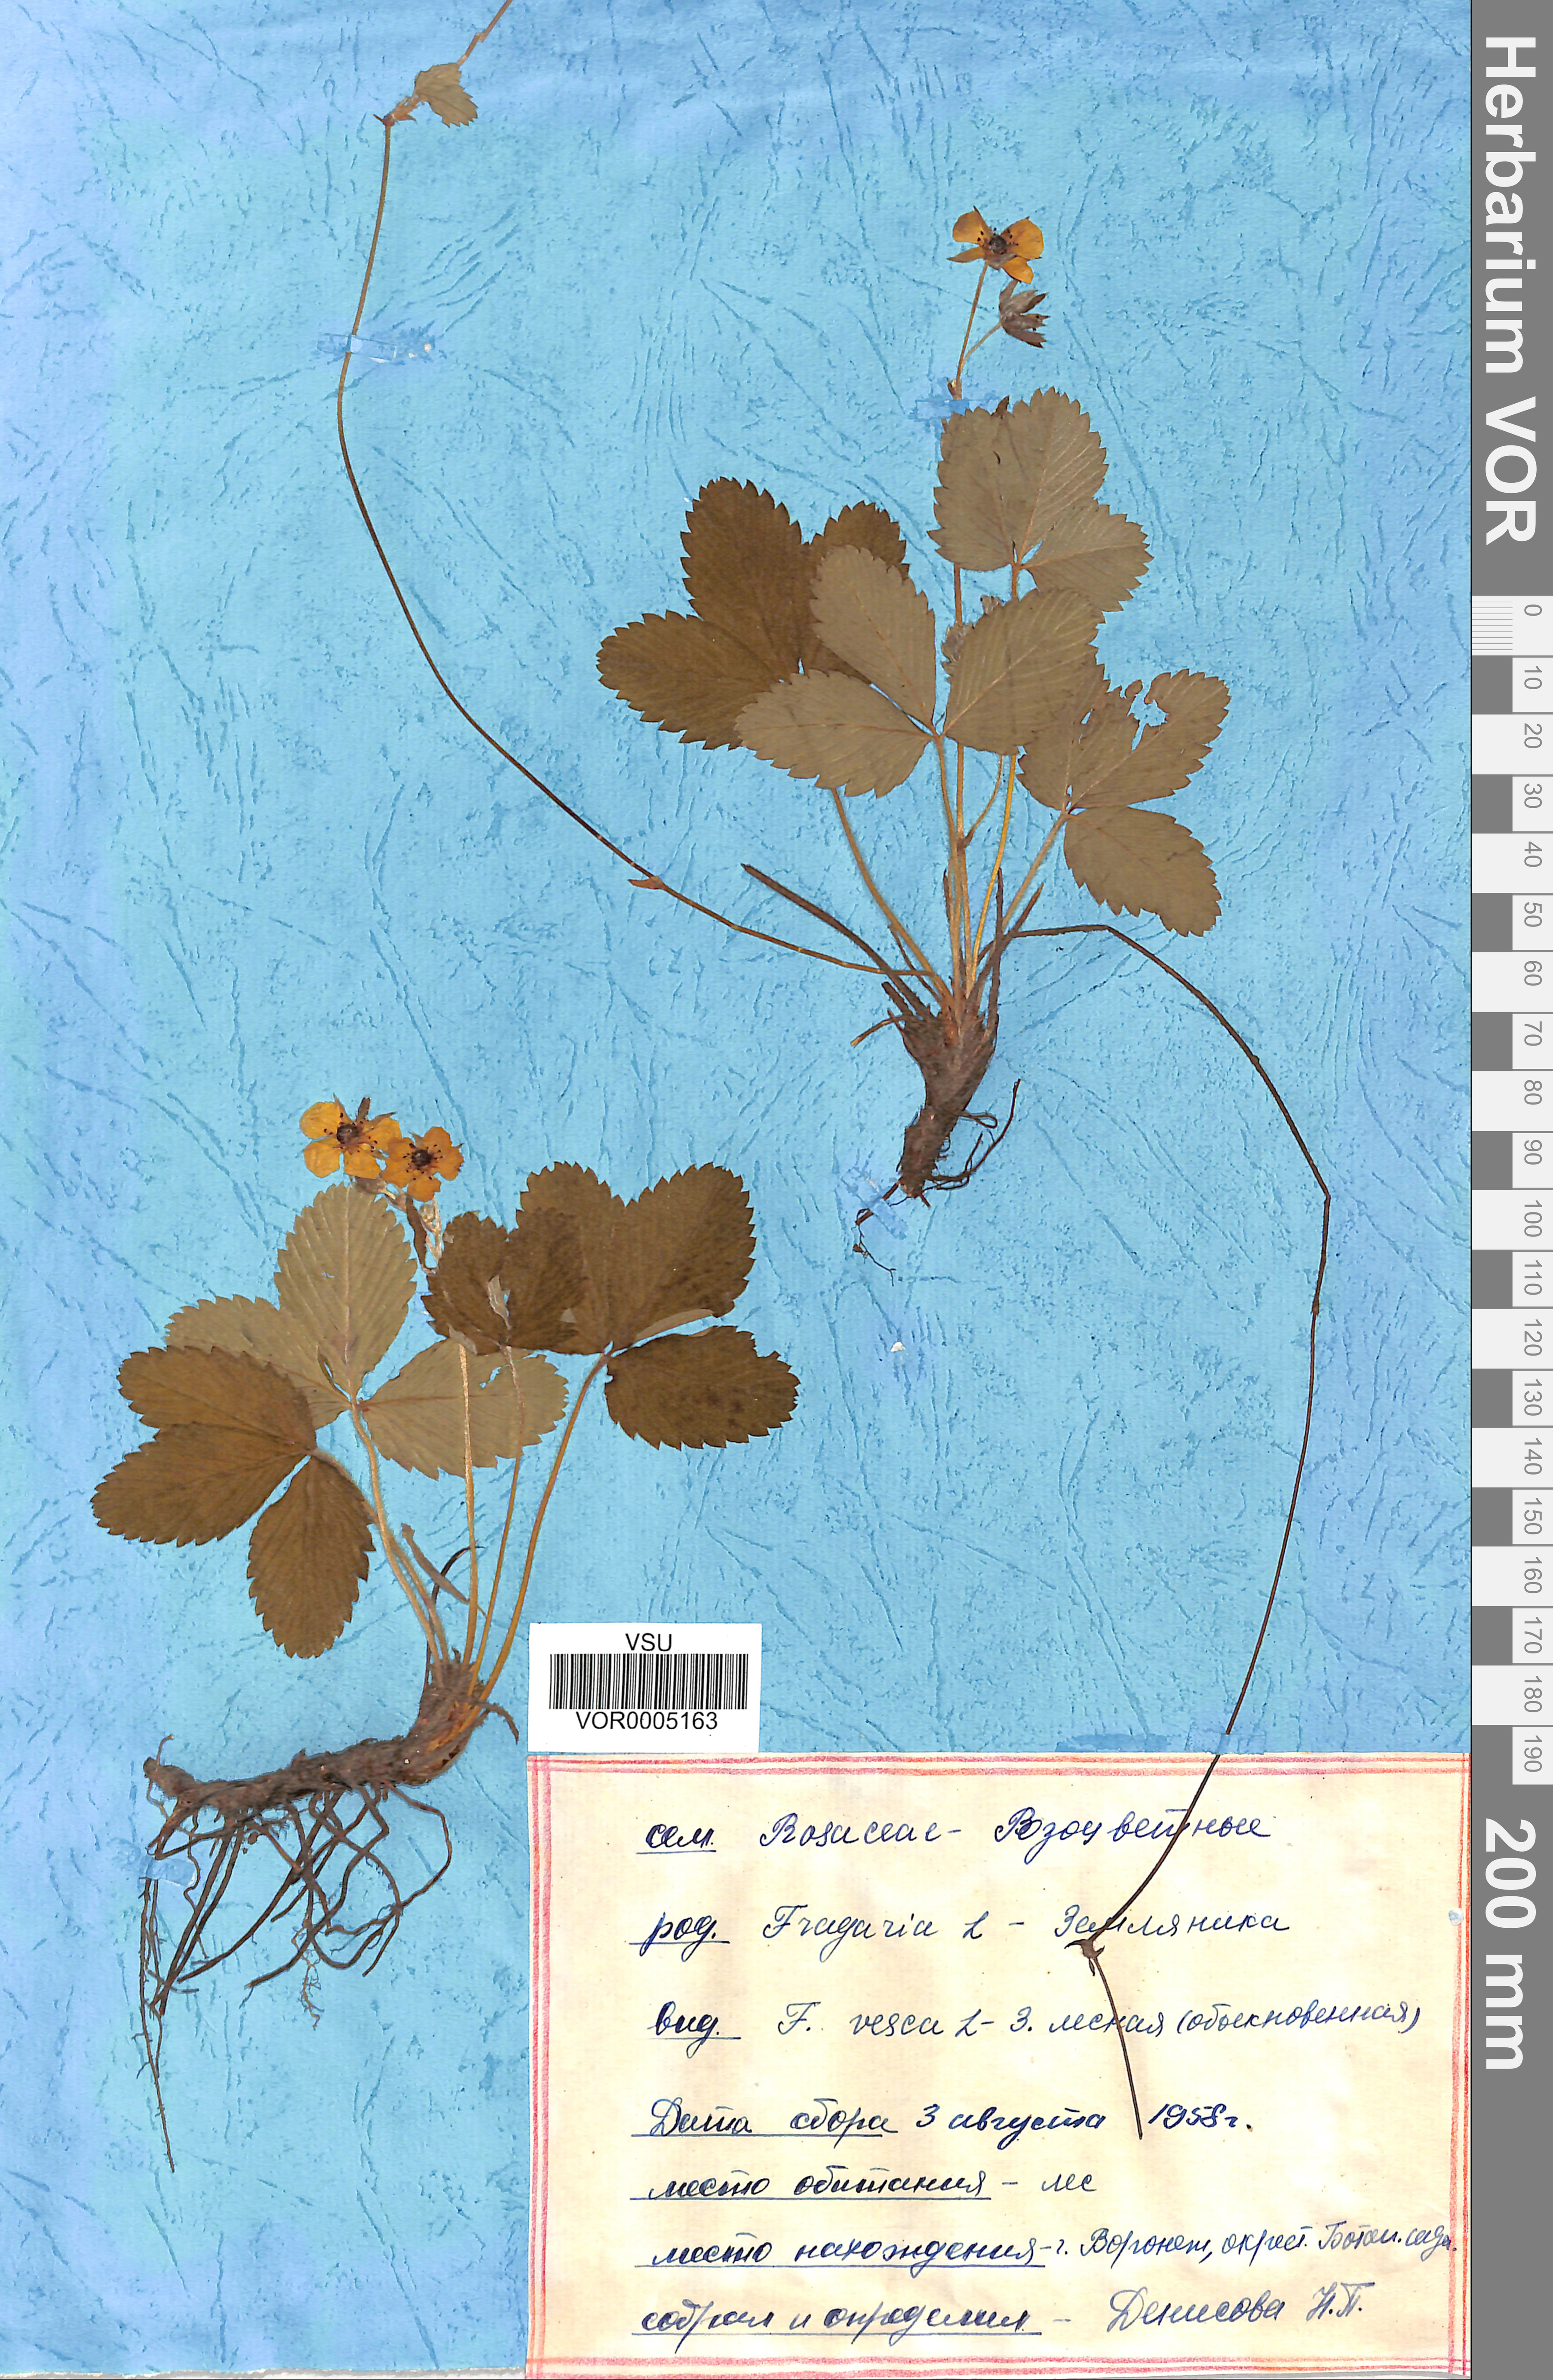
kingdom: Plantae
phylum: Tracheophyta
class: Magnoliopsida
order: Rosales
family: Rosaceae
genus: Fragaria
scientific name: Fragaria vesca
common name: Wild strawberry
